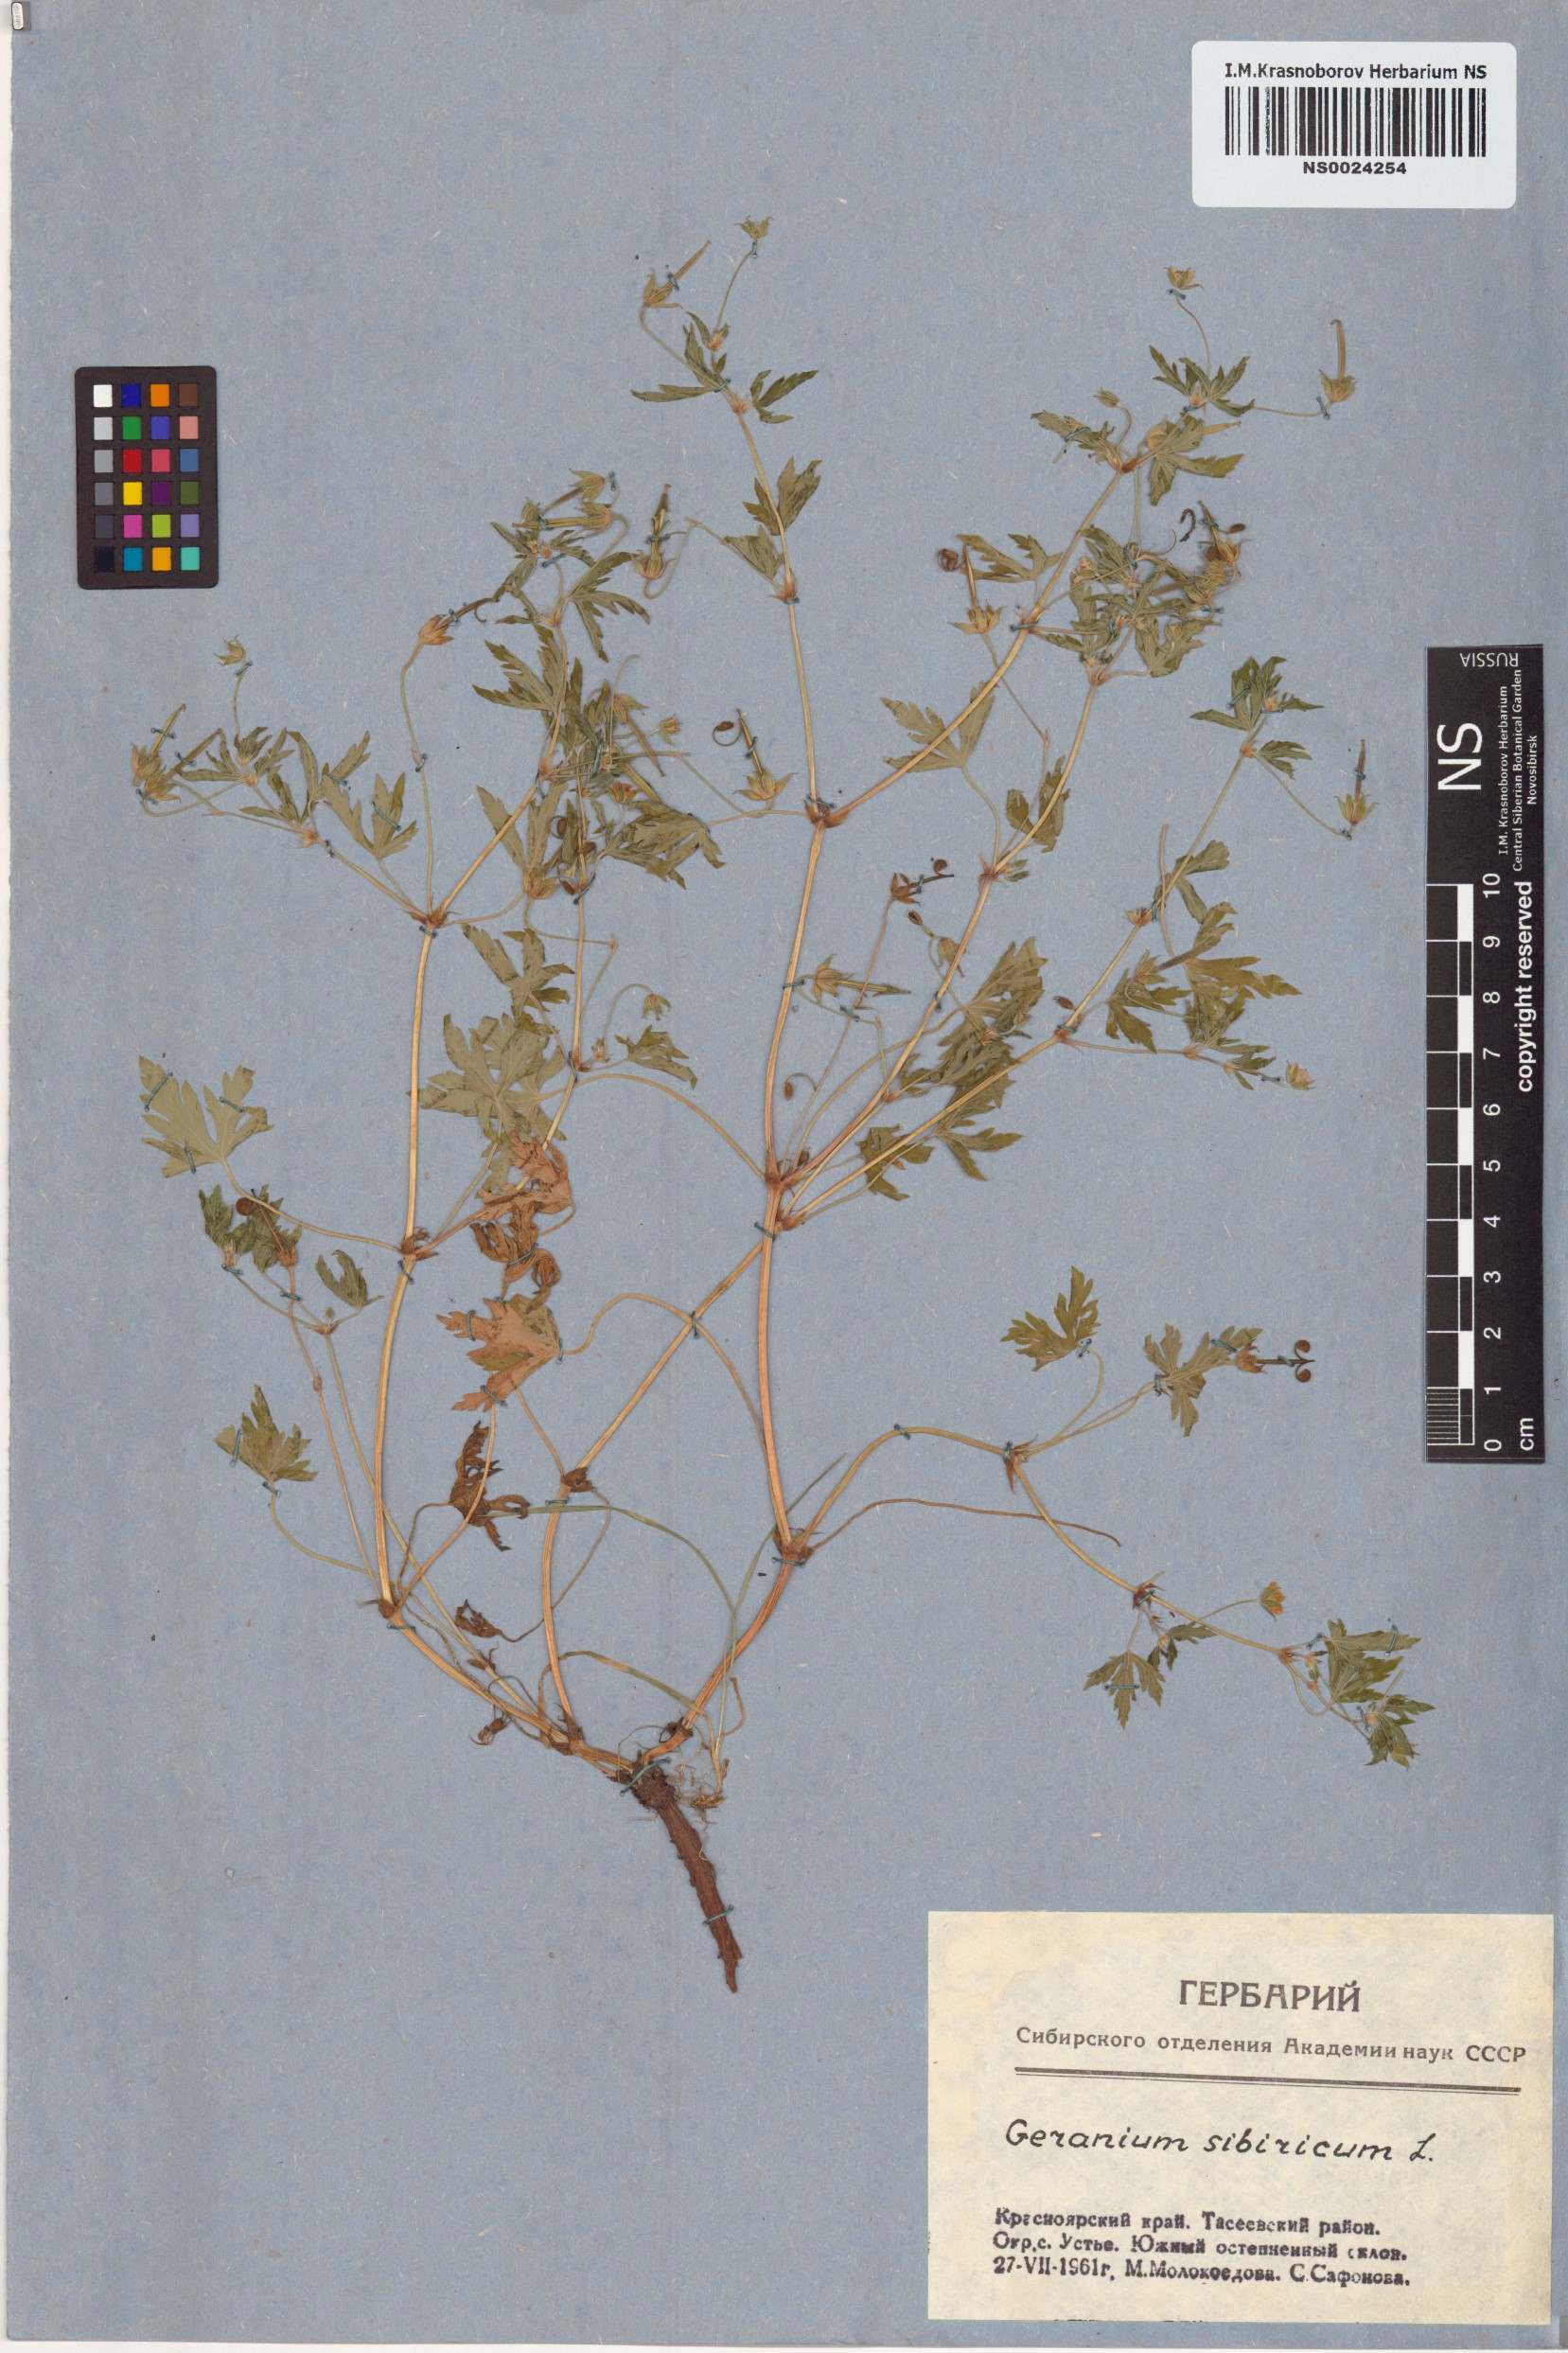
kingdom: Plantae
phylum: Tracheophyta
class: Magnoliopsida
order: Geraniales
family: Geraniaceae
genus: Geranium
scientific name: Geranium sibiricum
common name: Siberian crane's-bill
